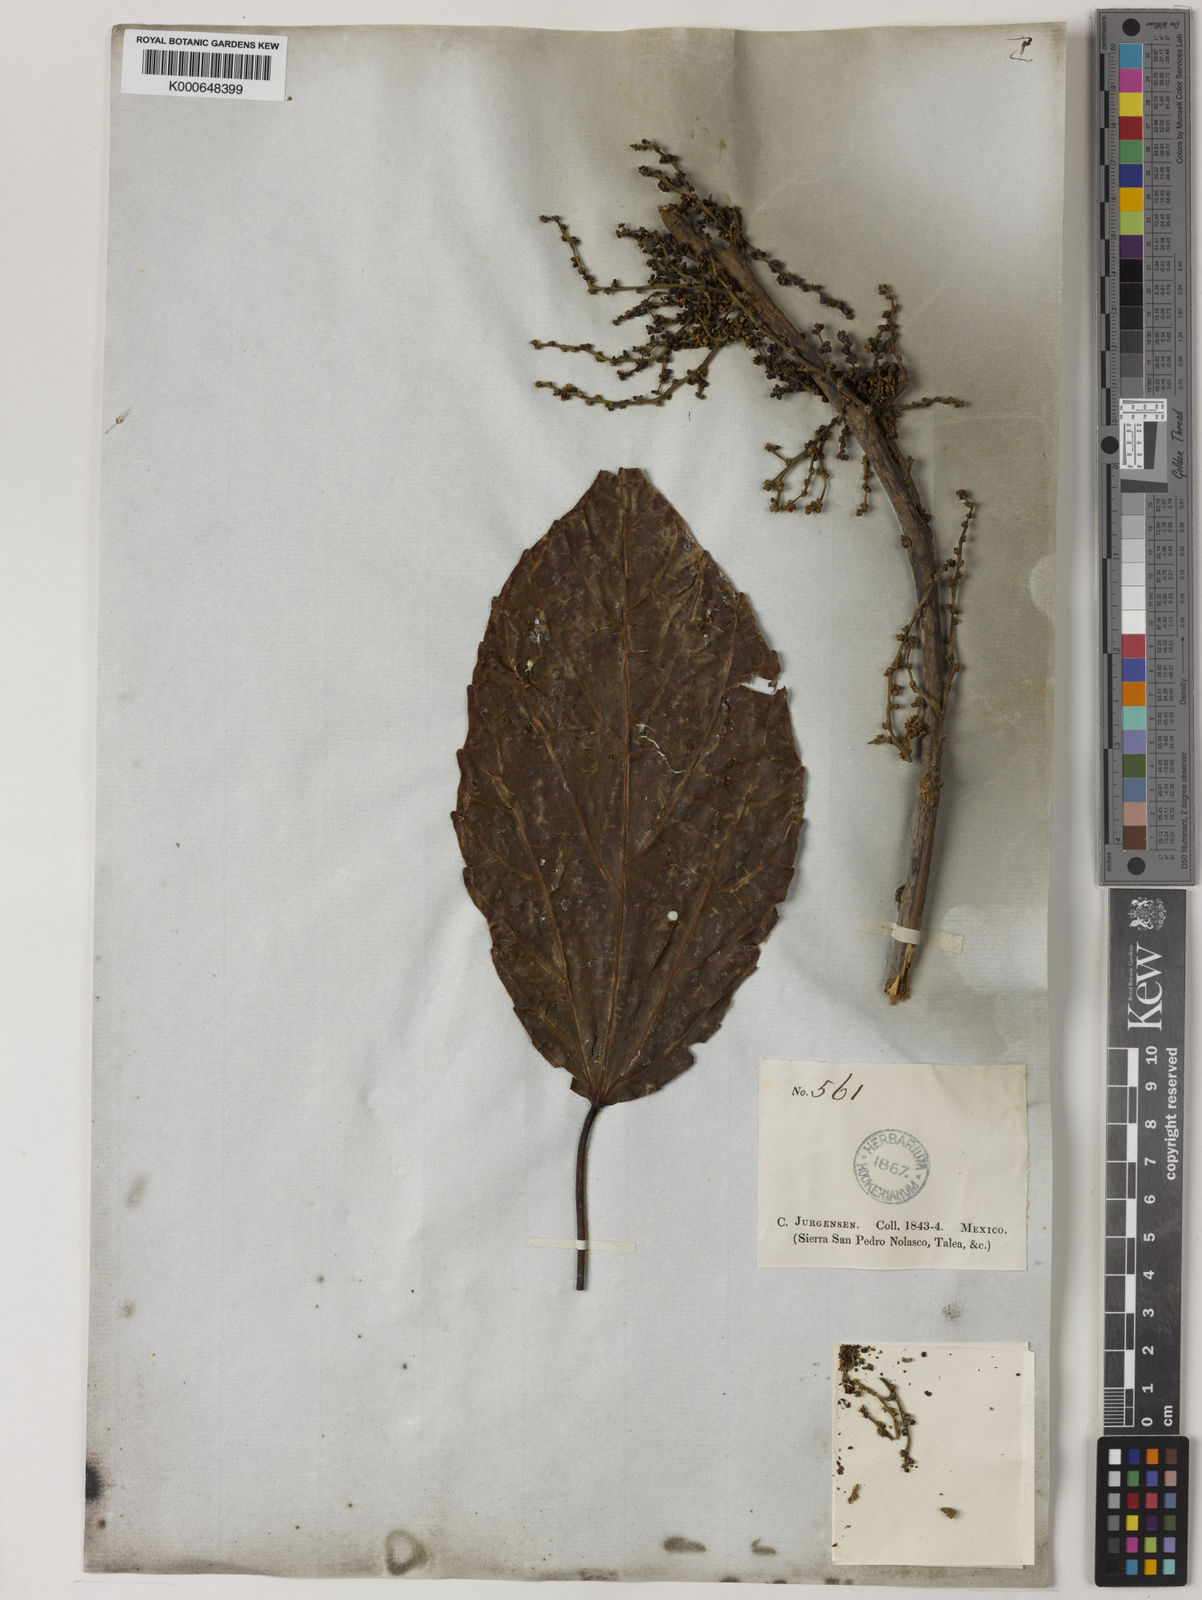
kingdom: Plantae
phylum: Tracheophyta
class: Magnoliopsida
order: Malpighiales
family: Euphorbiaceae
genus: Alchornea
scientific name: Alchornea latifolia
